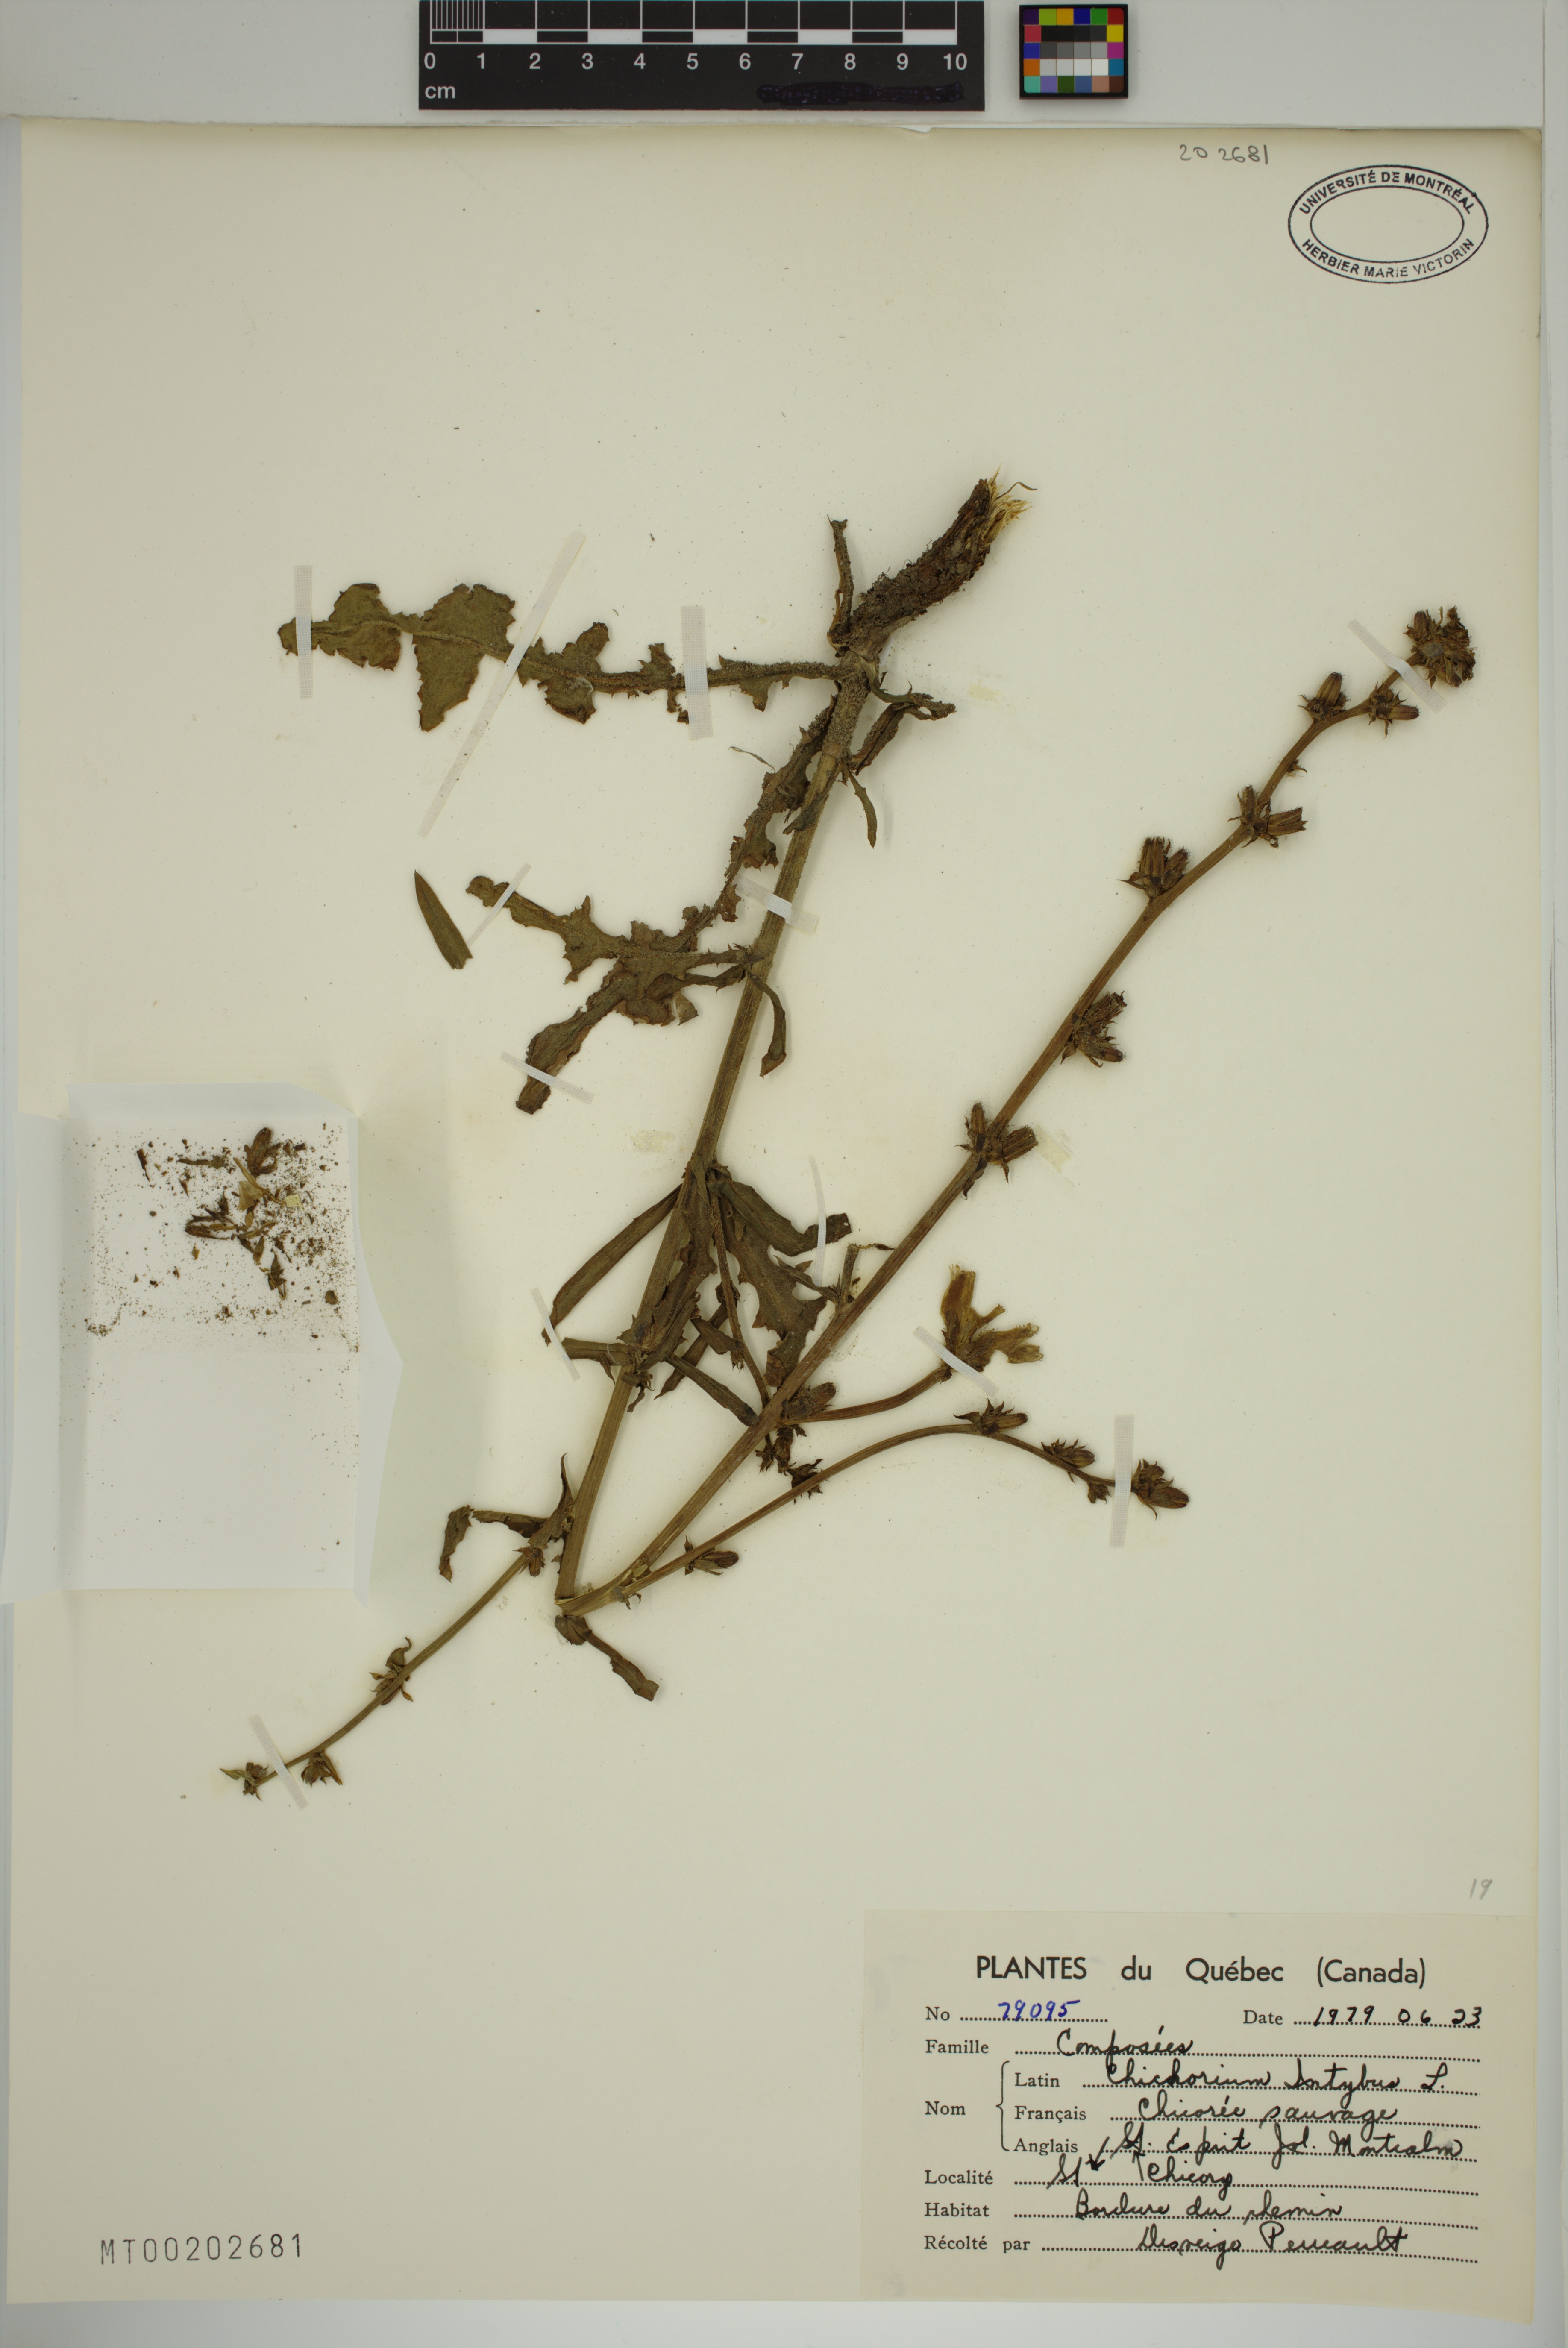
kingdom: Plantae
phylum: Tracheophyta
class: Magnoliopsida
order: Asterales
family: Asteraceae
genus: Cichorium
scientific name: Cichorium intybus
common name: Chicory
